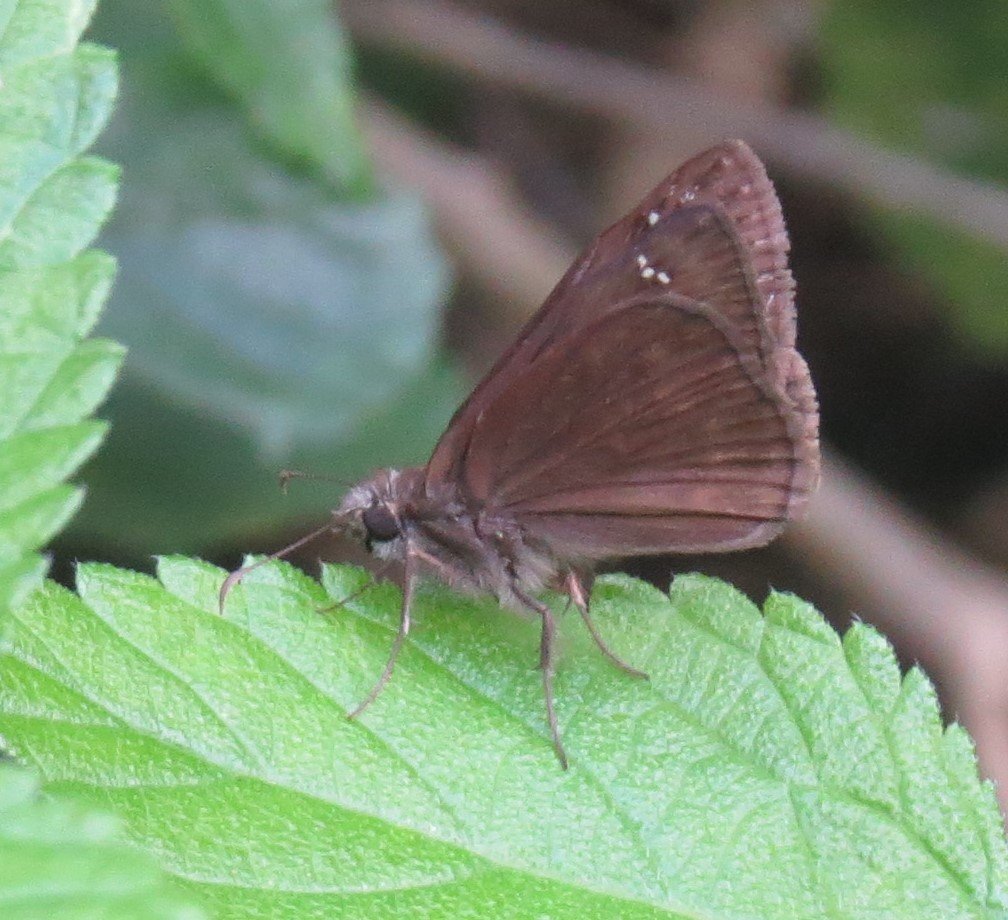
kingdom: Animalia
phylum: Arthropoda
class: Insecta
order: Lepidoptera
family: Hesperiidae
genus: Lerema
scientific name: Lerema accius
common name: Clouded Skipper
